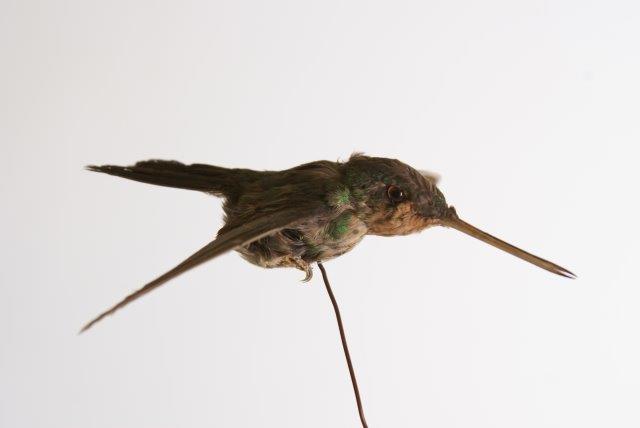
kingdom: Animalia
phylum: Chordata
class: Aves
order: Apodiformes
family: Trochilidae
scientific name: Trochilidae
